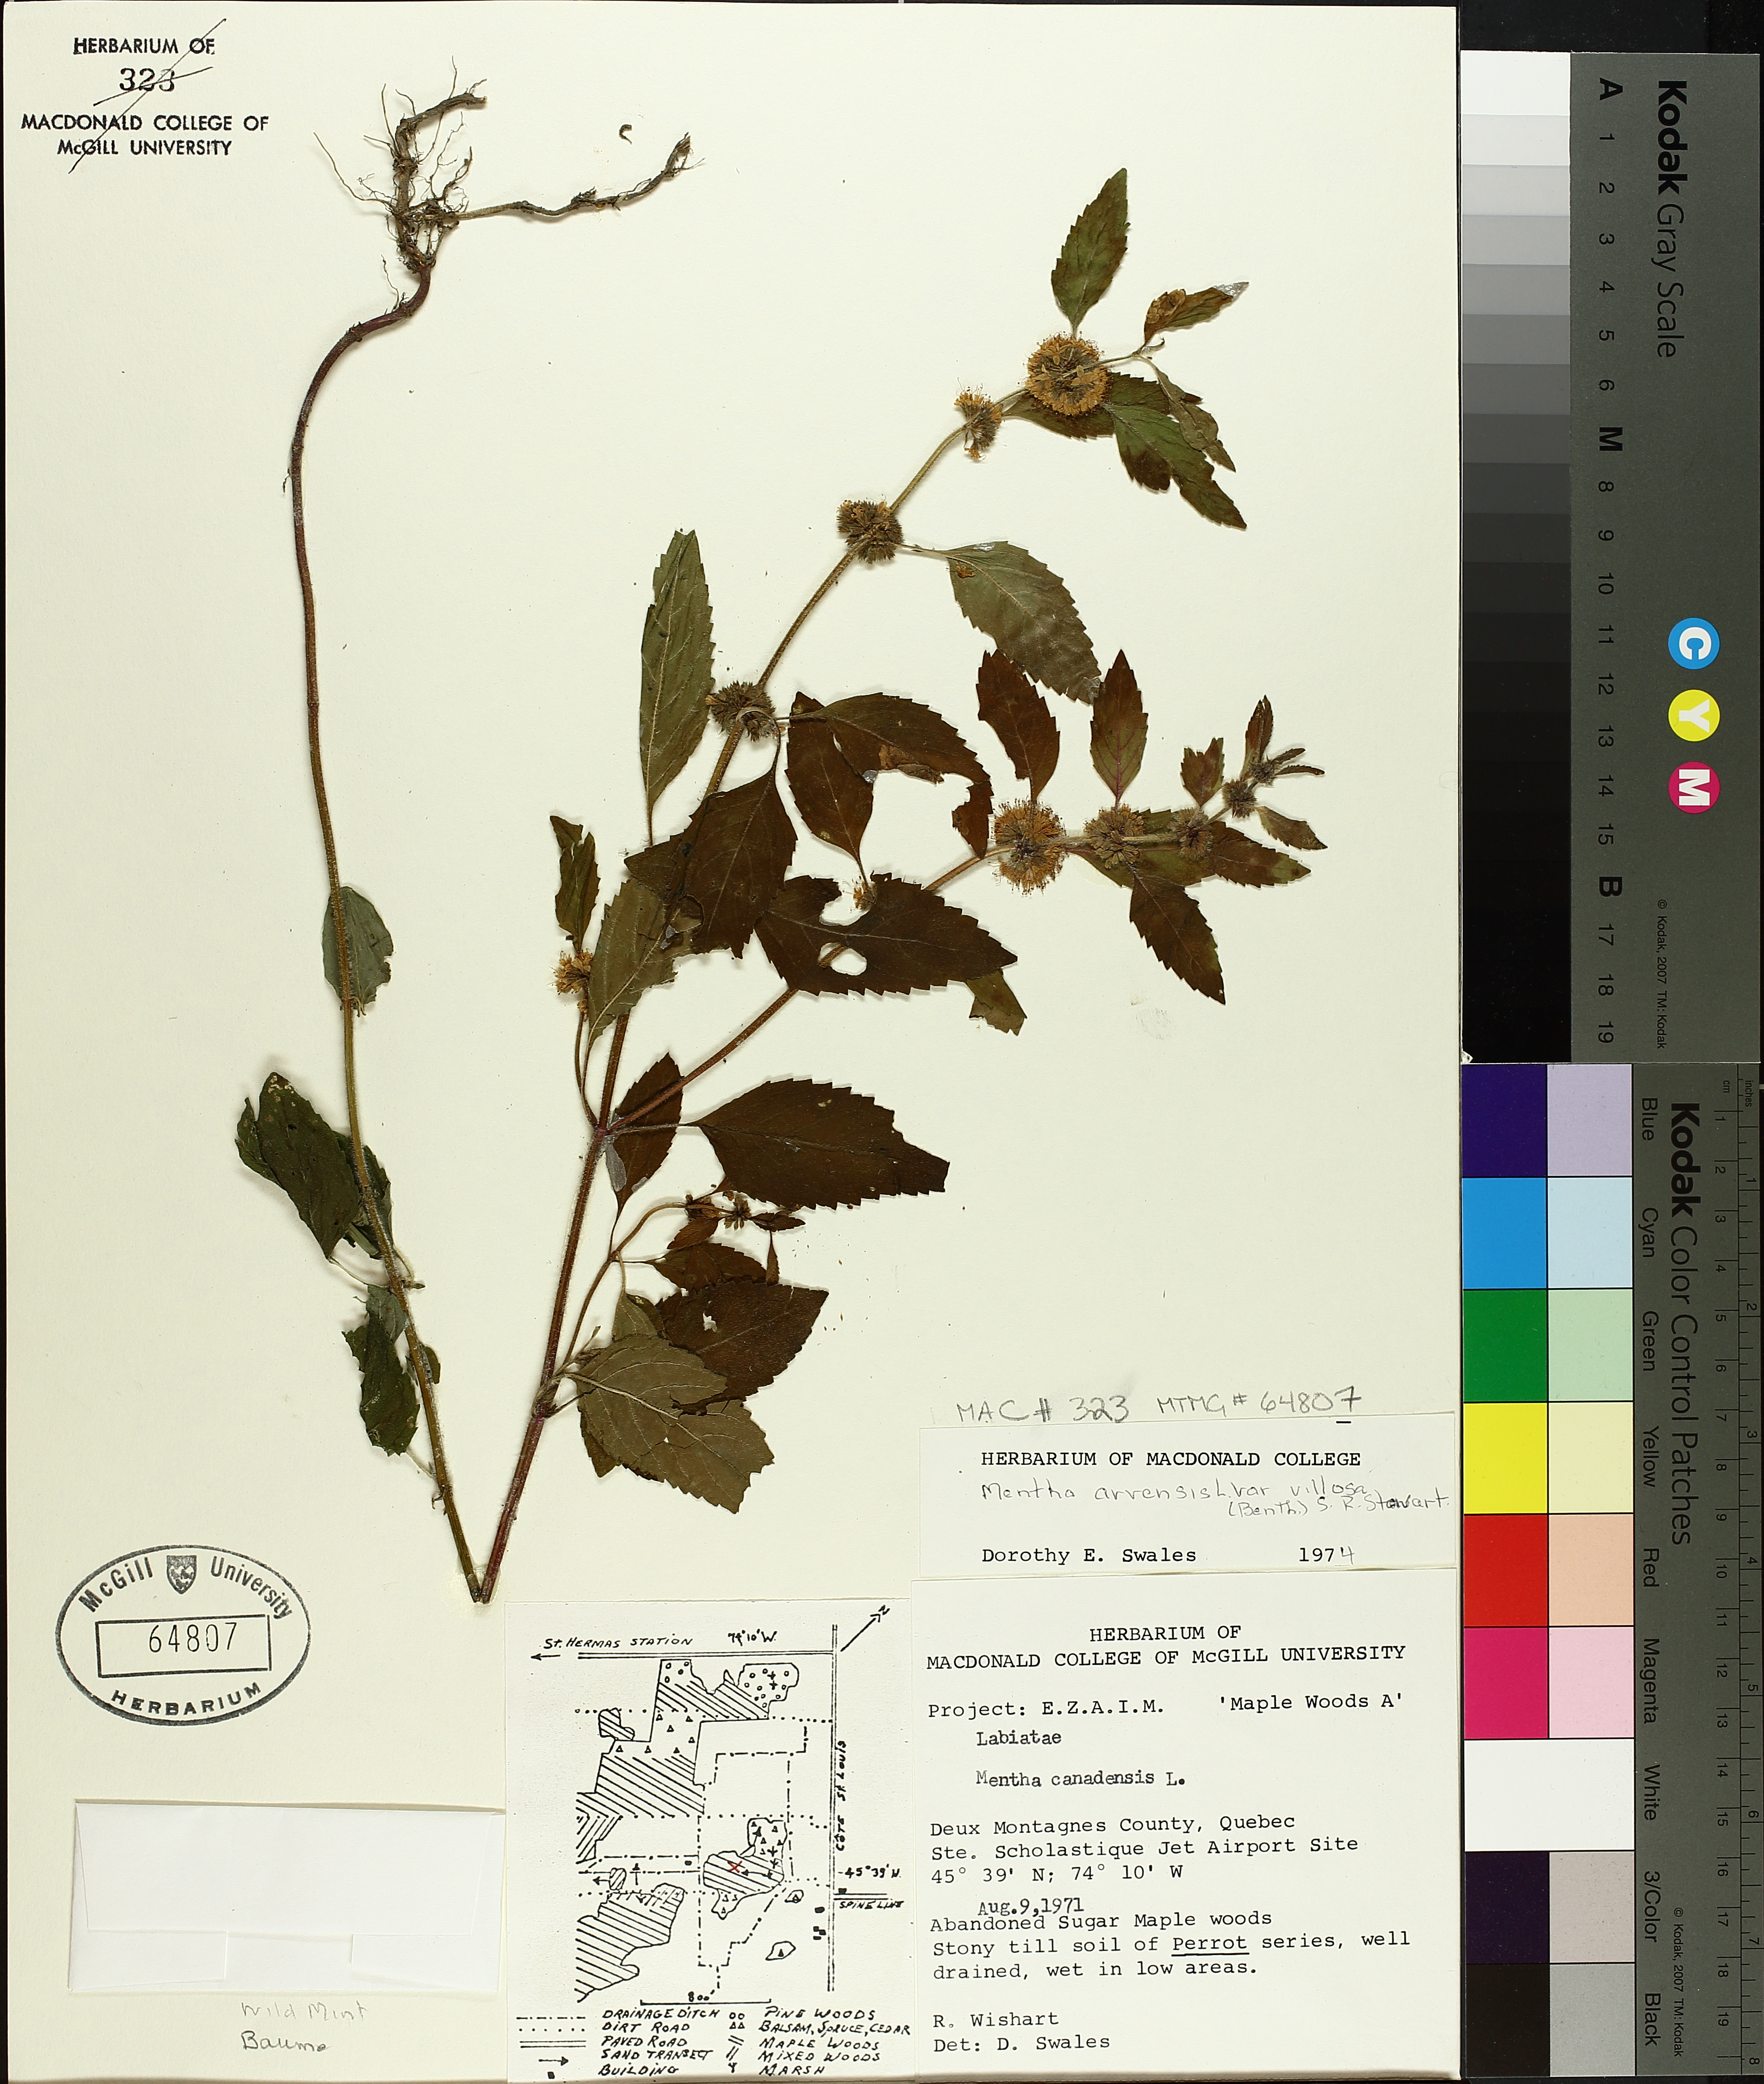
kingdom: Plantae
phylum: Tracheophyta
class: Magnoliopsida
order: Lamiales
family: Lamiaceae
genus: Mentha
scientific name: Mentha arvensis
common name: Corn mint
